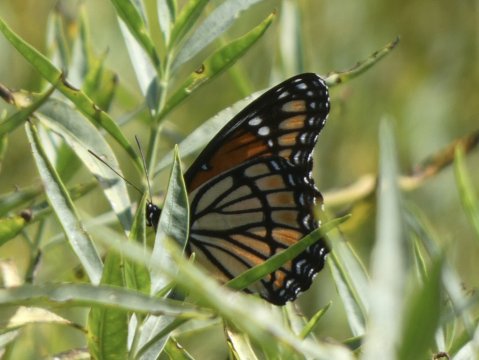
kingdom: Animalia
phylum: Arthropoda
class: Insecta
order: Lepidoptera
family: Nymphalidae
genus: Limenitis
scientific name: Limenitis archippus
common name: Viceroy
